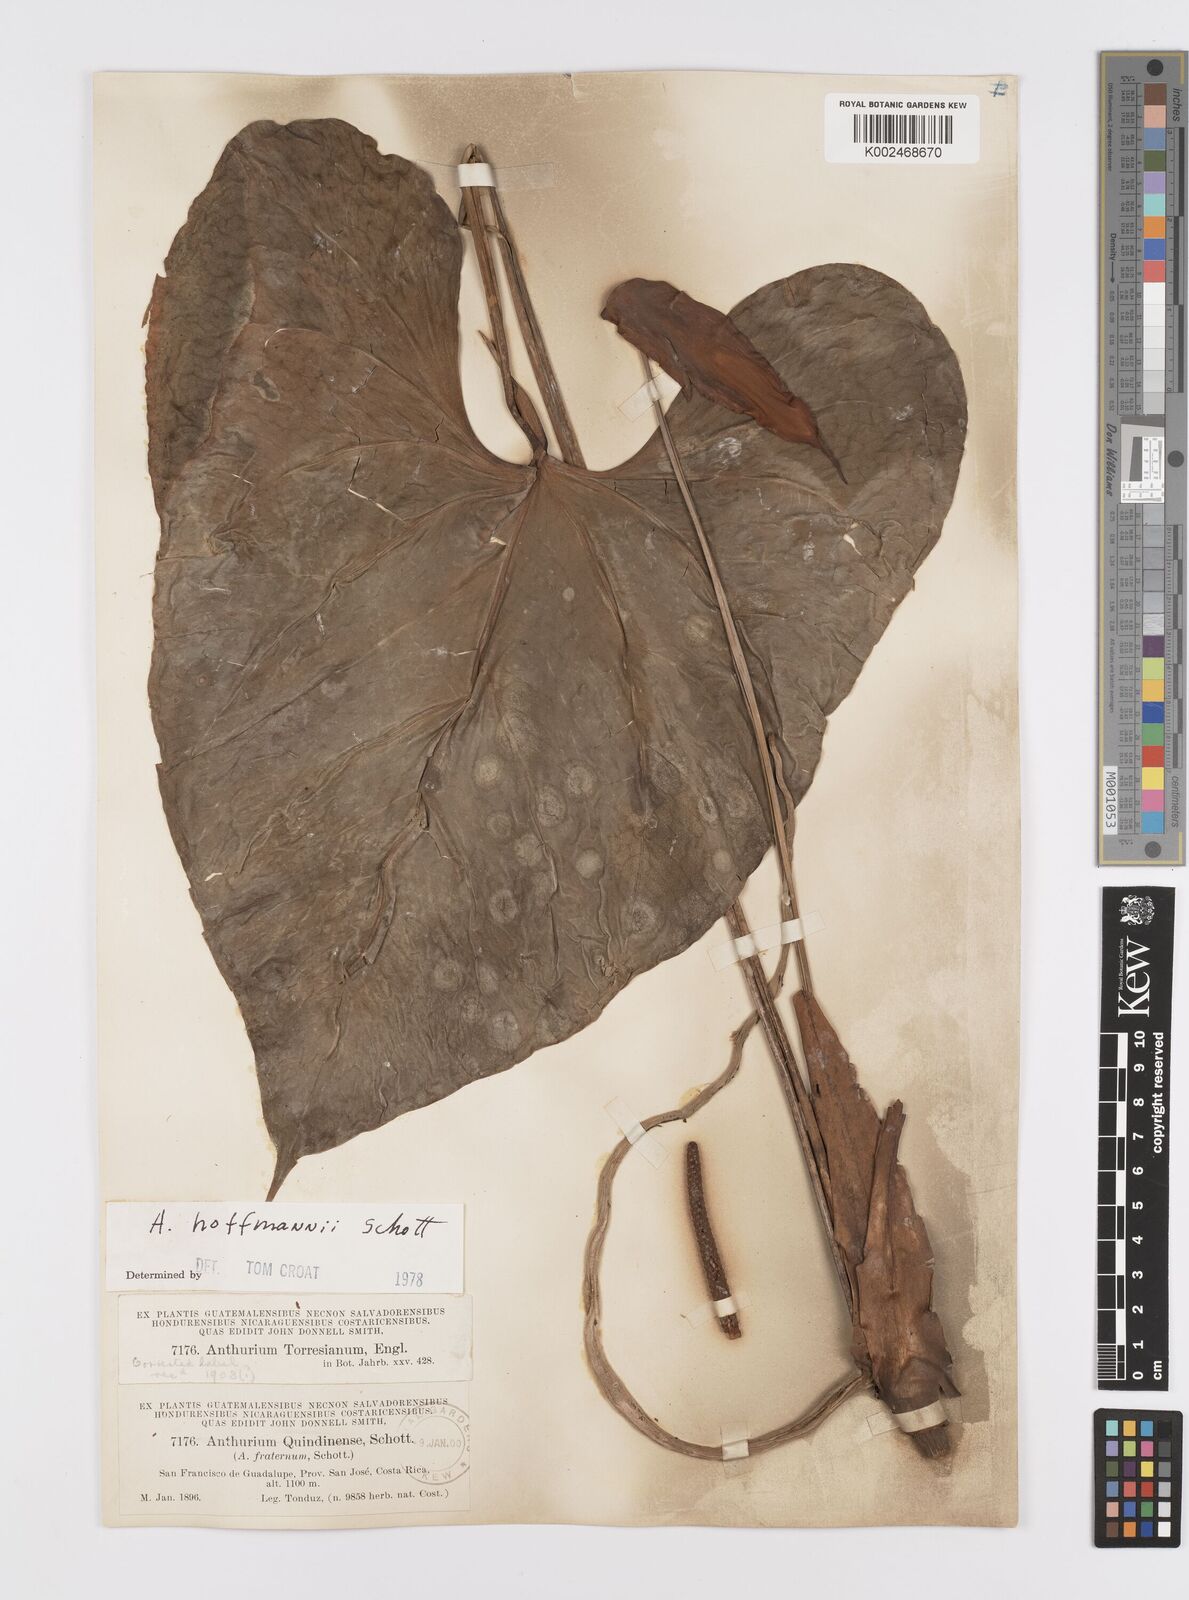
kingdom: Plantae
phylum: Tracheophyta
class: Liliopsida
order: Alismatales
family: Araceae
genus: Anthurium
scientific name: Anthurium hoffmannii
